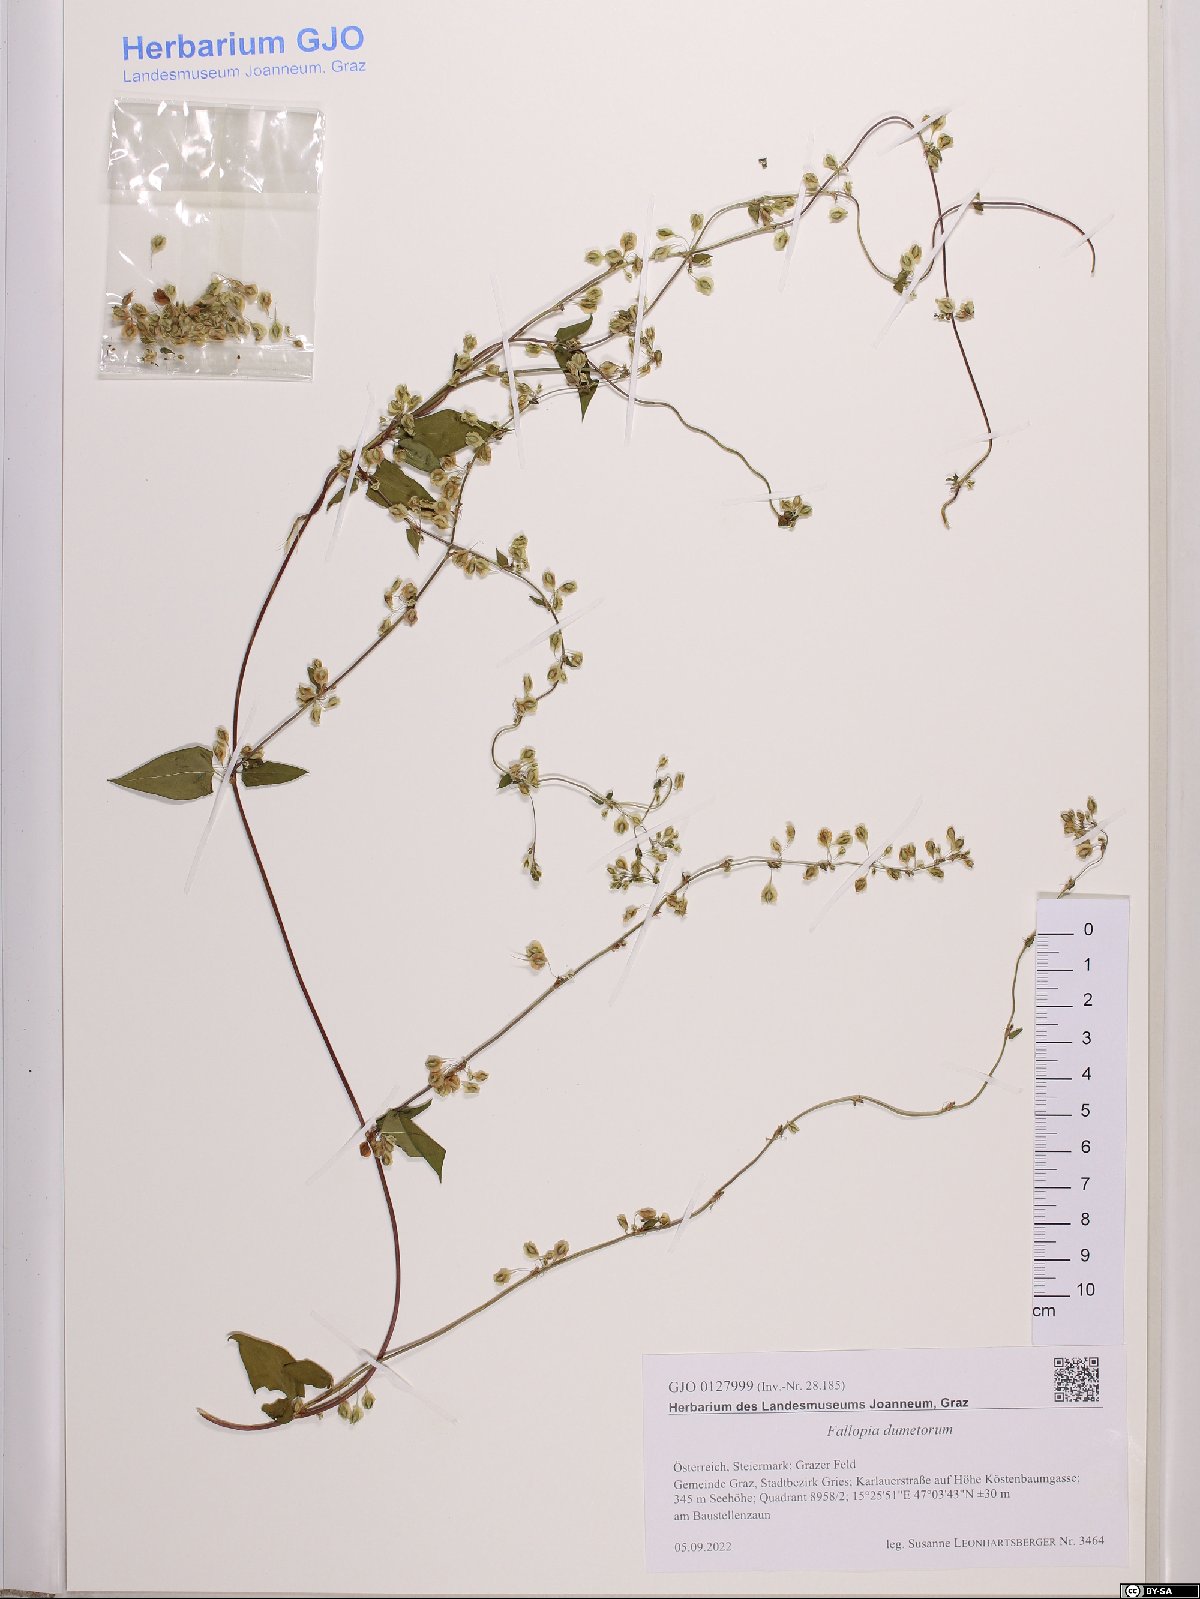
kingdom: Plantae
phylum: Tracheophyta
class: Magnoliopsida
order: Caryophyllales
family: Polygonaceae
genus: Fallopia
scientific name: Fallopia dumetorum
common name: Copse-bindweed
